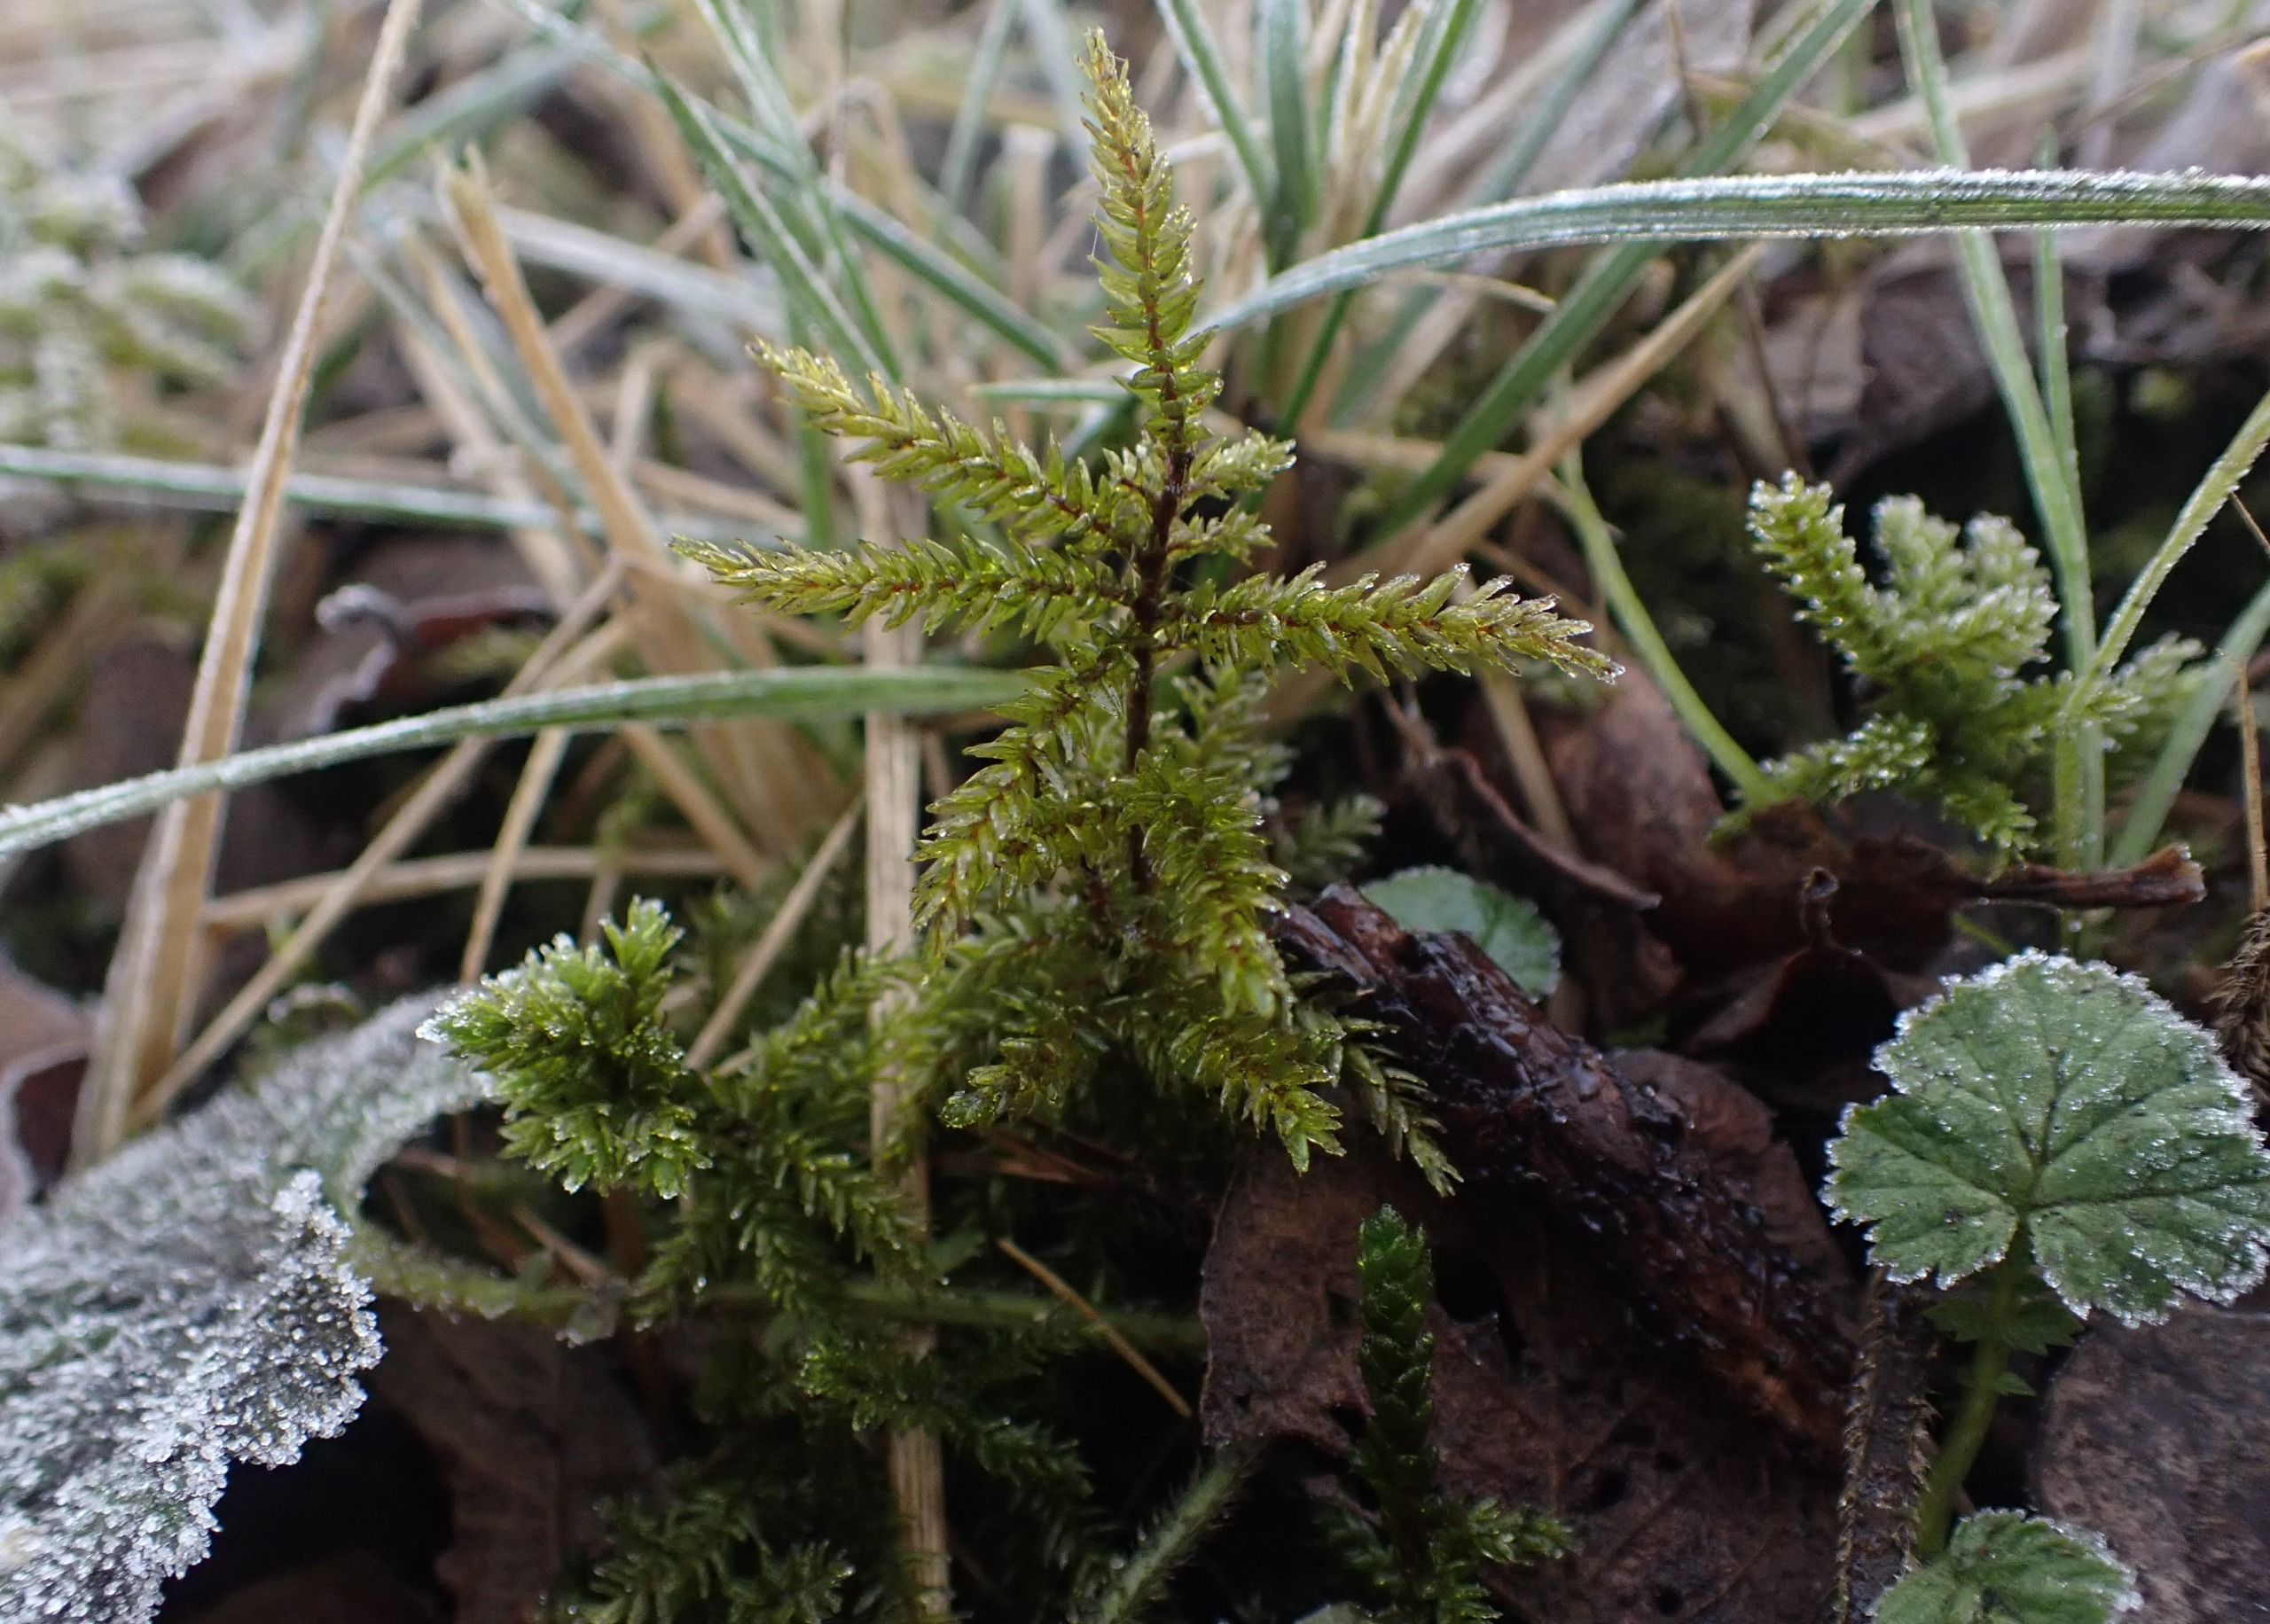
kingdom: Plantae
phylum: Bryophyta
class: Bryopsida
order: Hypnales
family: Climaciaceae
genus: Climacium
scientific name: Climacium dendroides
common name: Stor engkost
